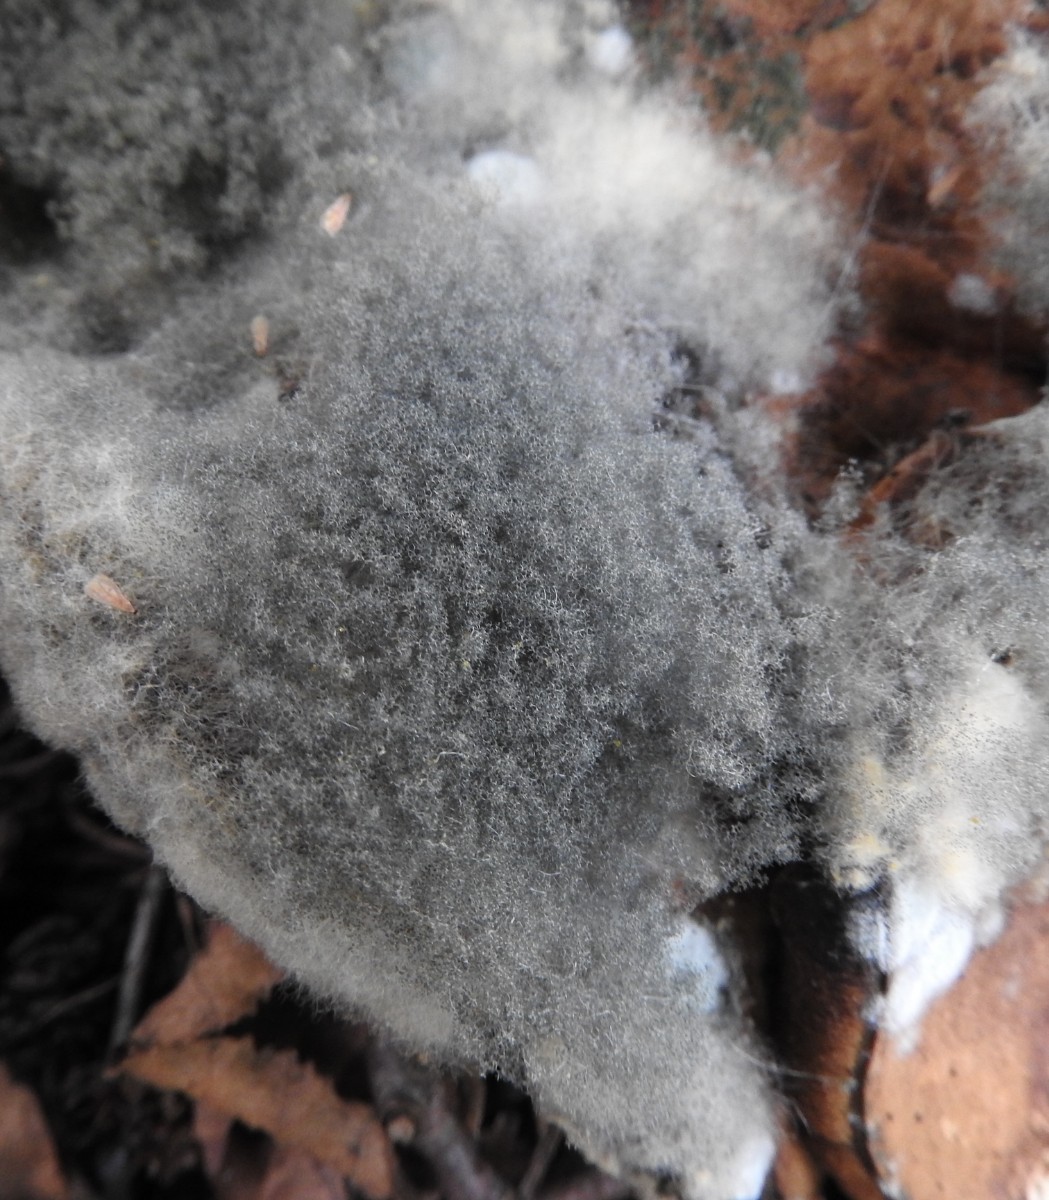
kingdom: Fungi
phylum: Mucoromycota
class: Mucoromycetes
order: Mucorales
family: Rhizopodaceae
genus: Syzygites
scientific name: Syzygites megalocarpus
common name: nissenål
